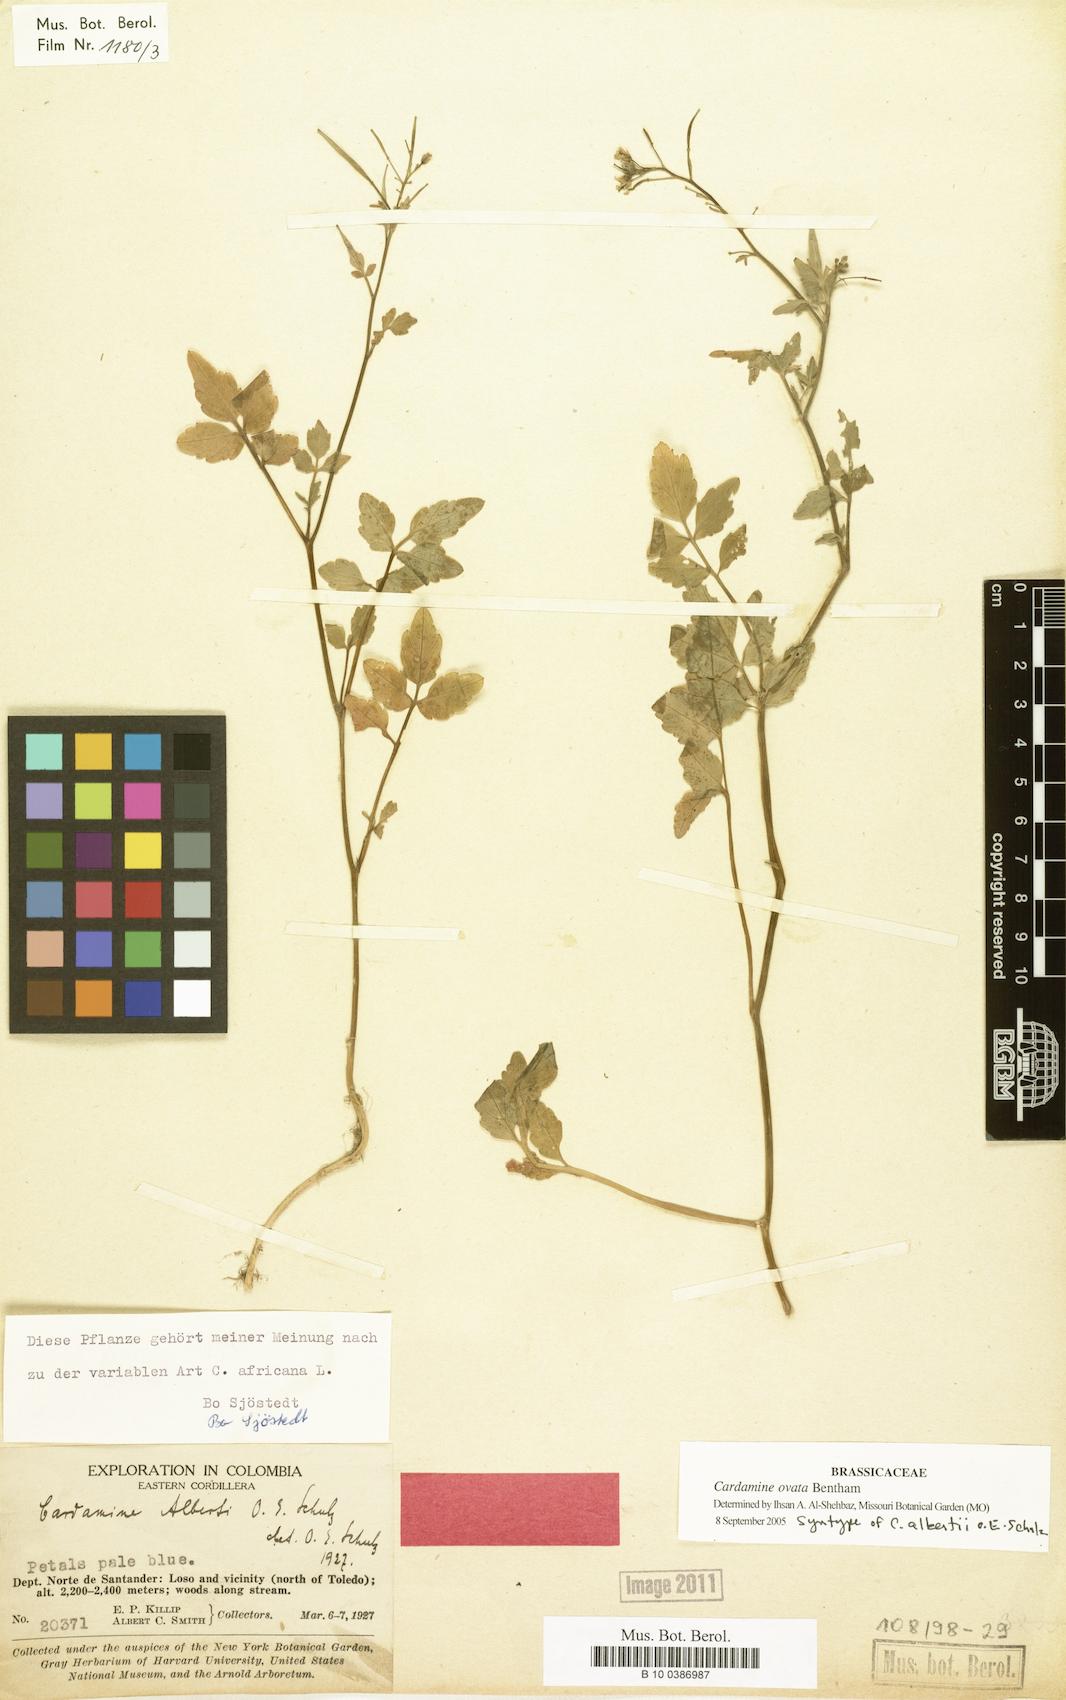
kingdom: Plantae
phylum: Tracheophyta
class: Magnoliopsida
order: Brassicales
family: Brassicaceae
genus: Cardamine
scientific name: Cardamine ovata
